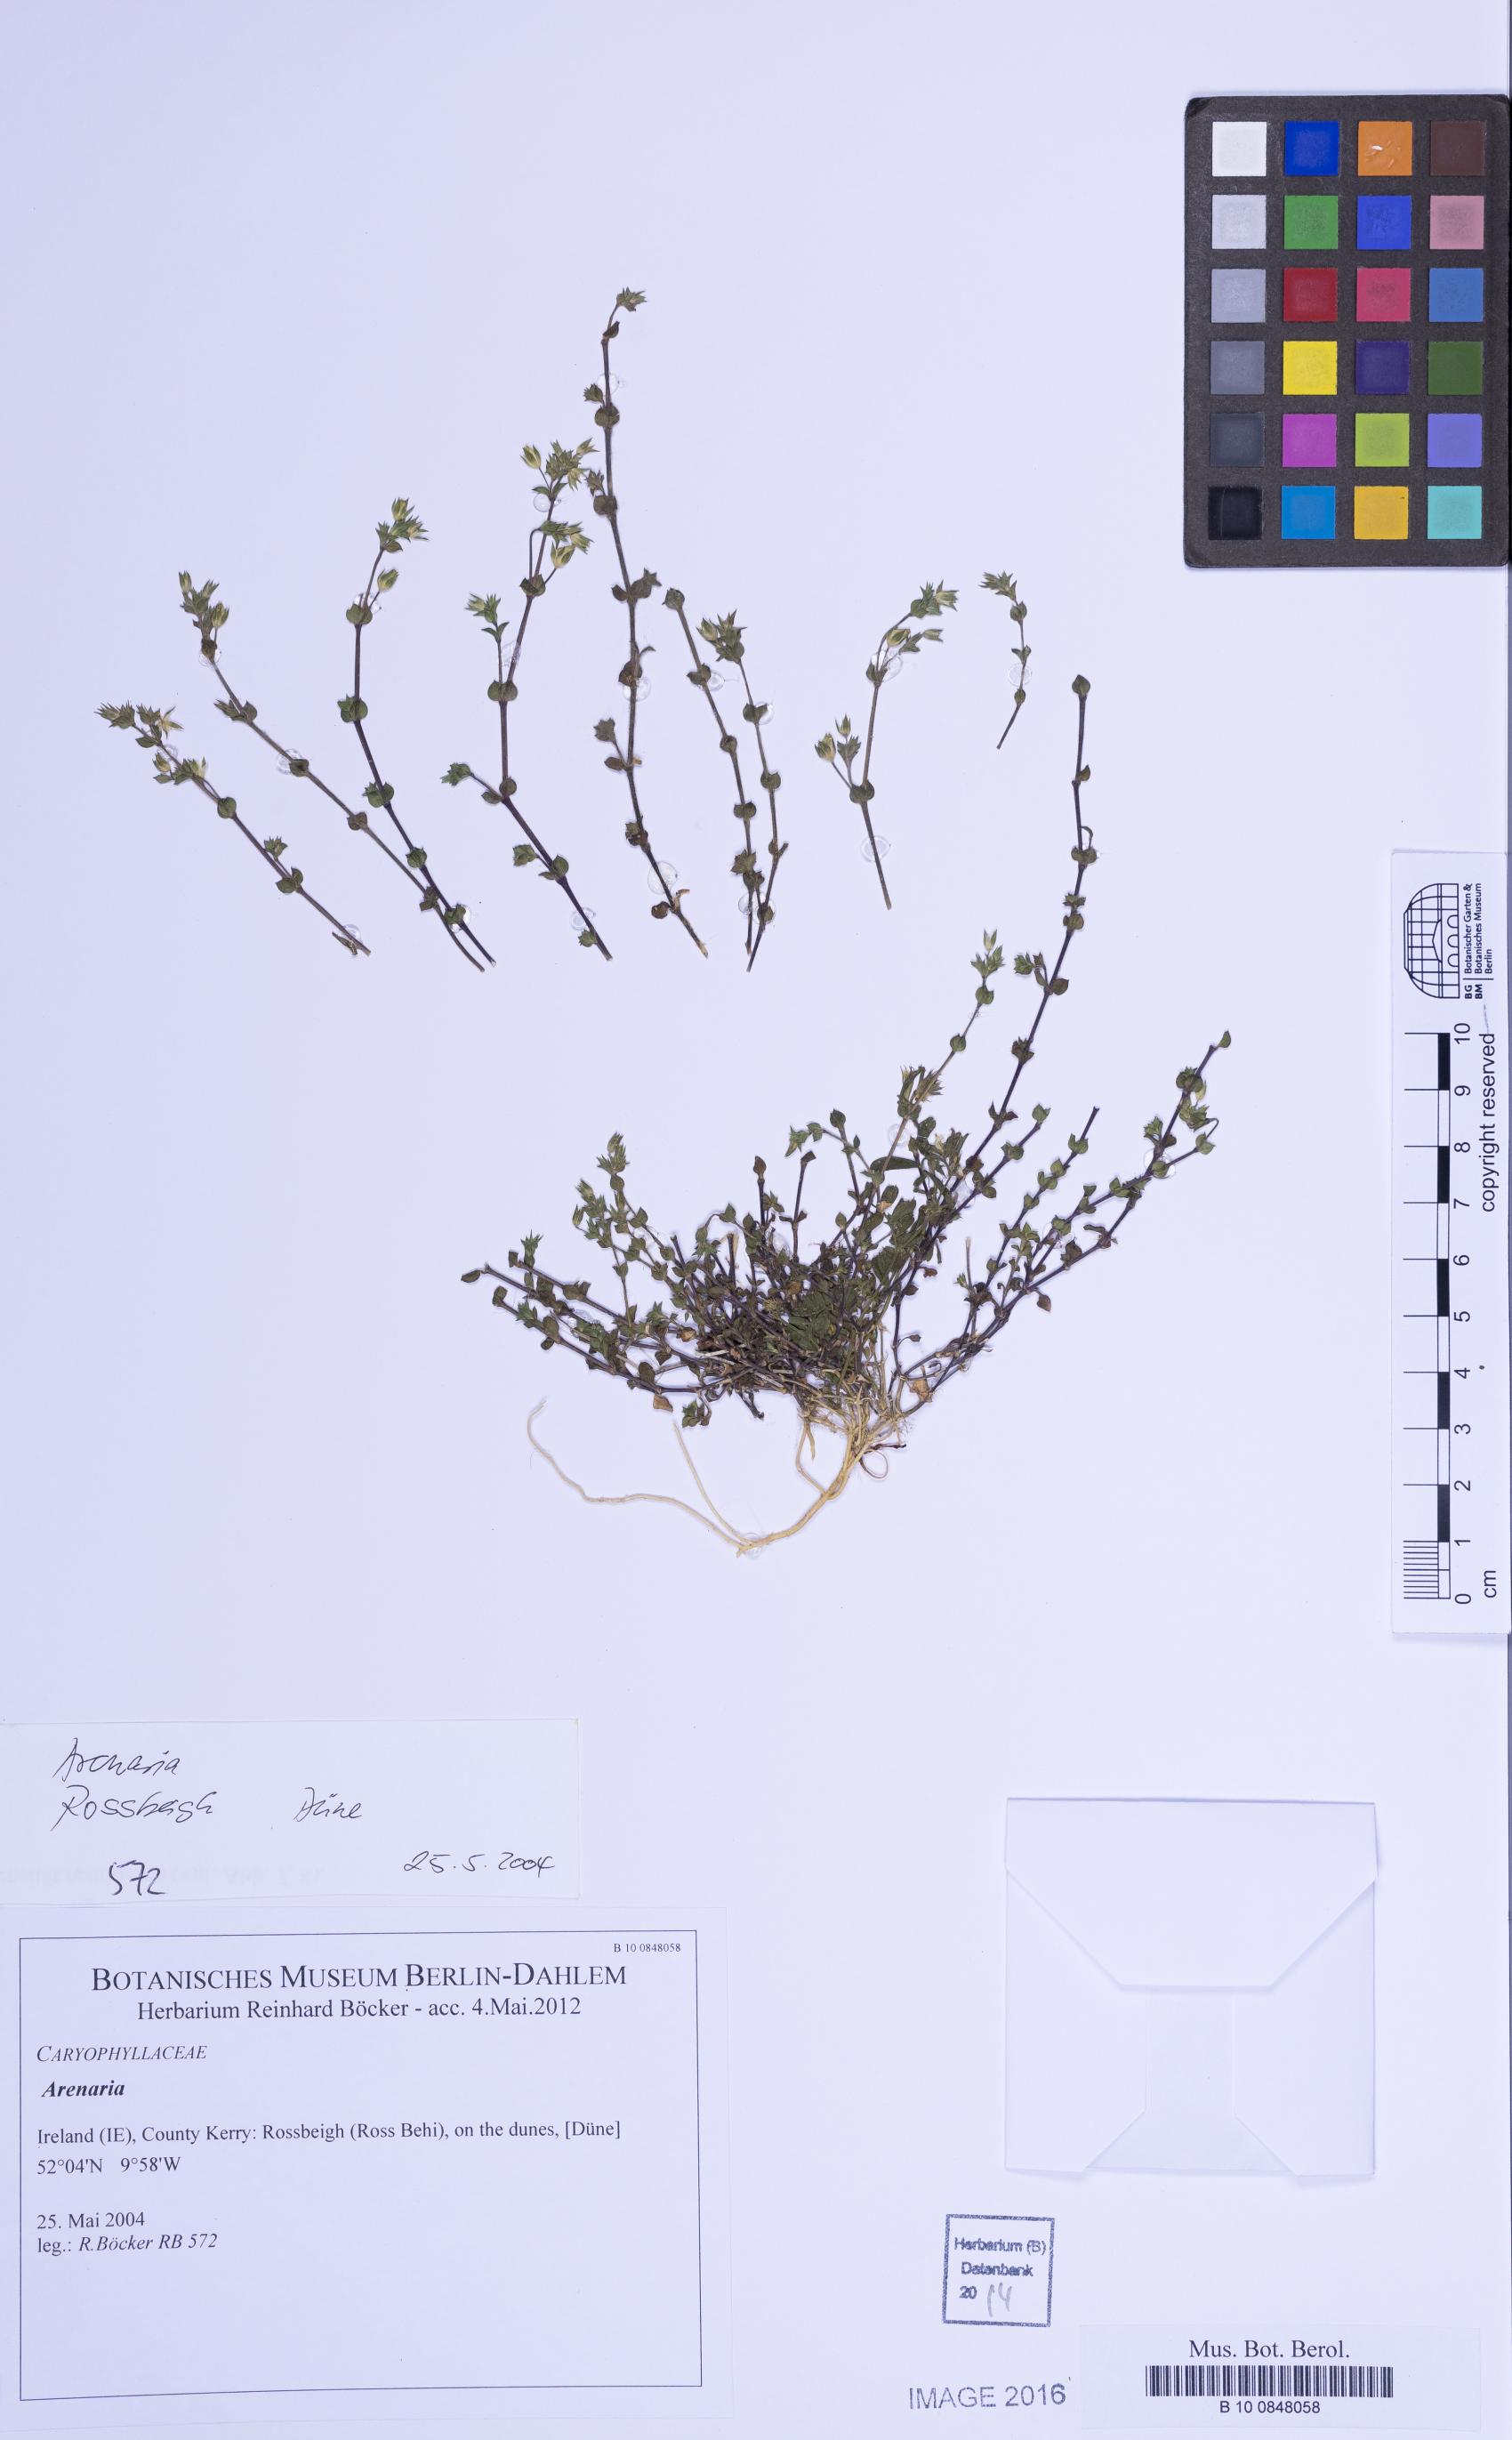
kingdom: Plantae
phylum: Tracheophyta
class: Magnoliopsida
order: Caryophyllales
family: Caryophyllaceae
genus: Arenaria
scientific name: Arenaria
